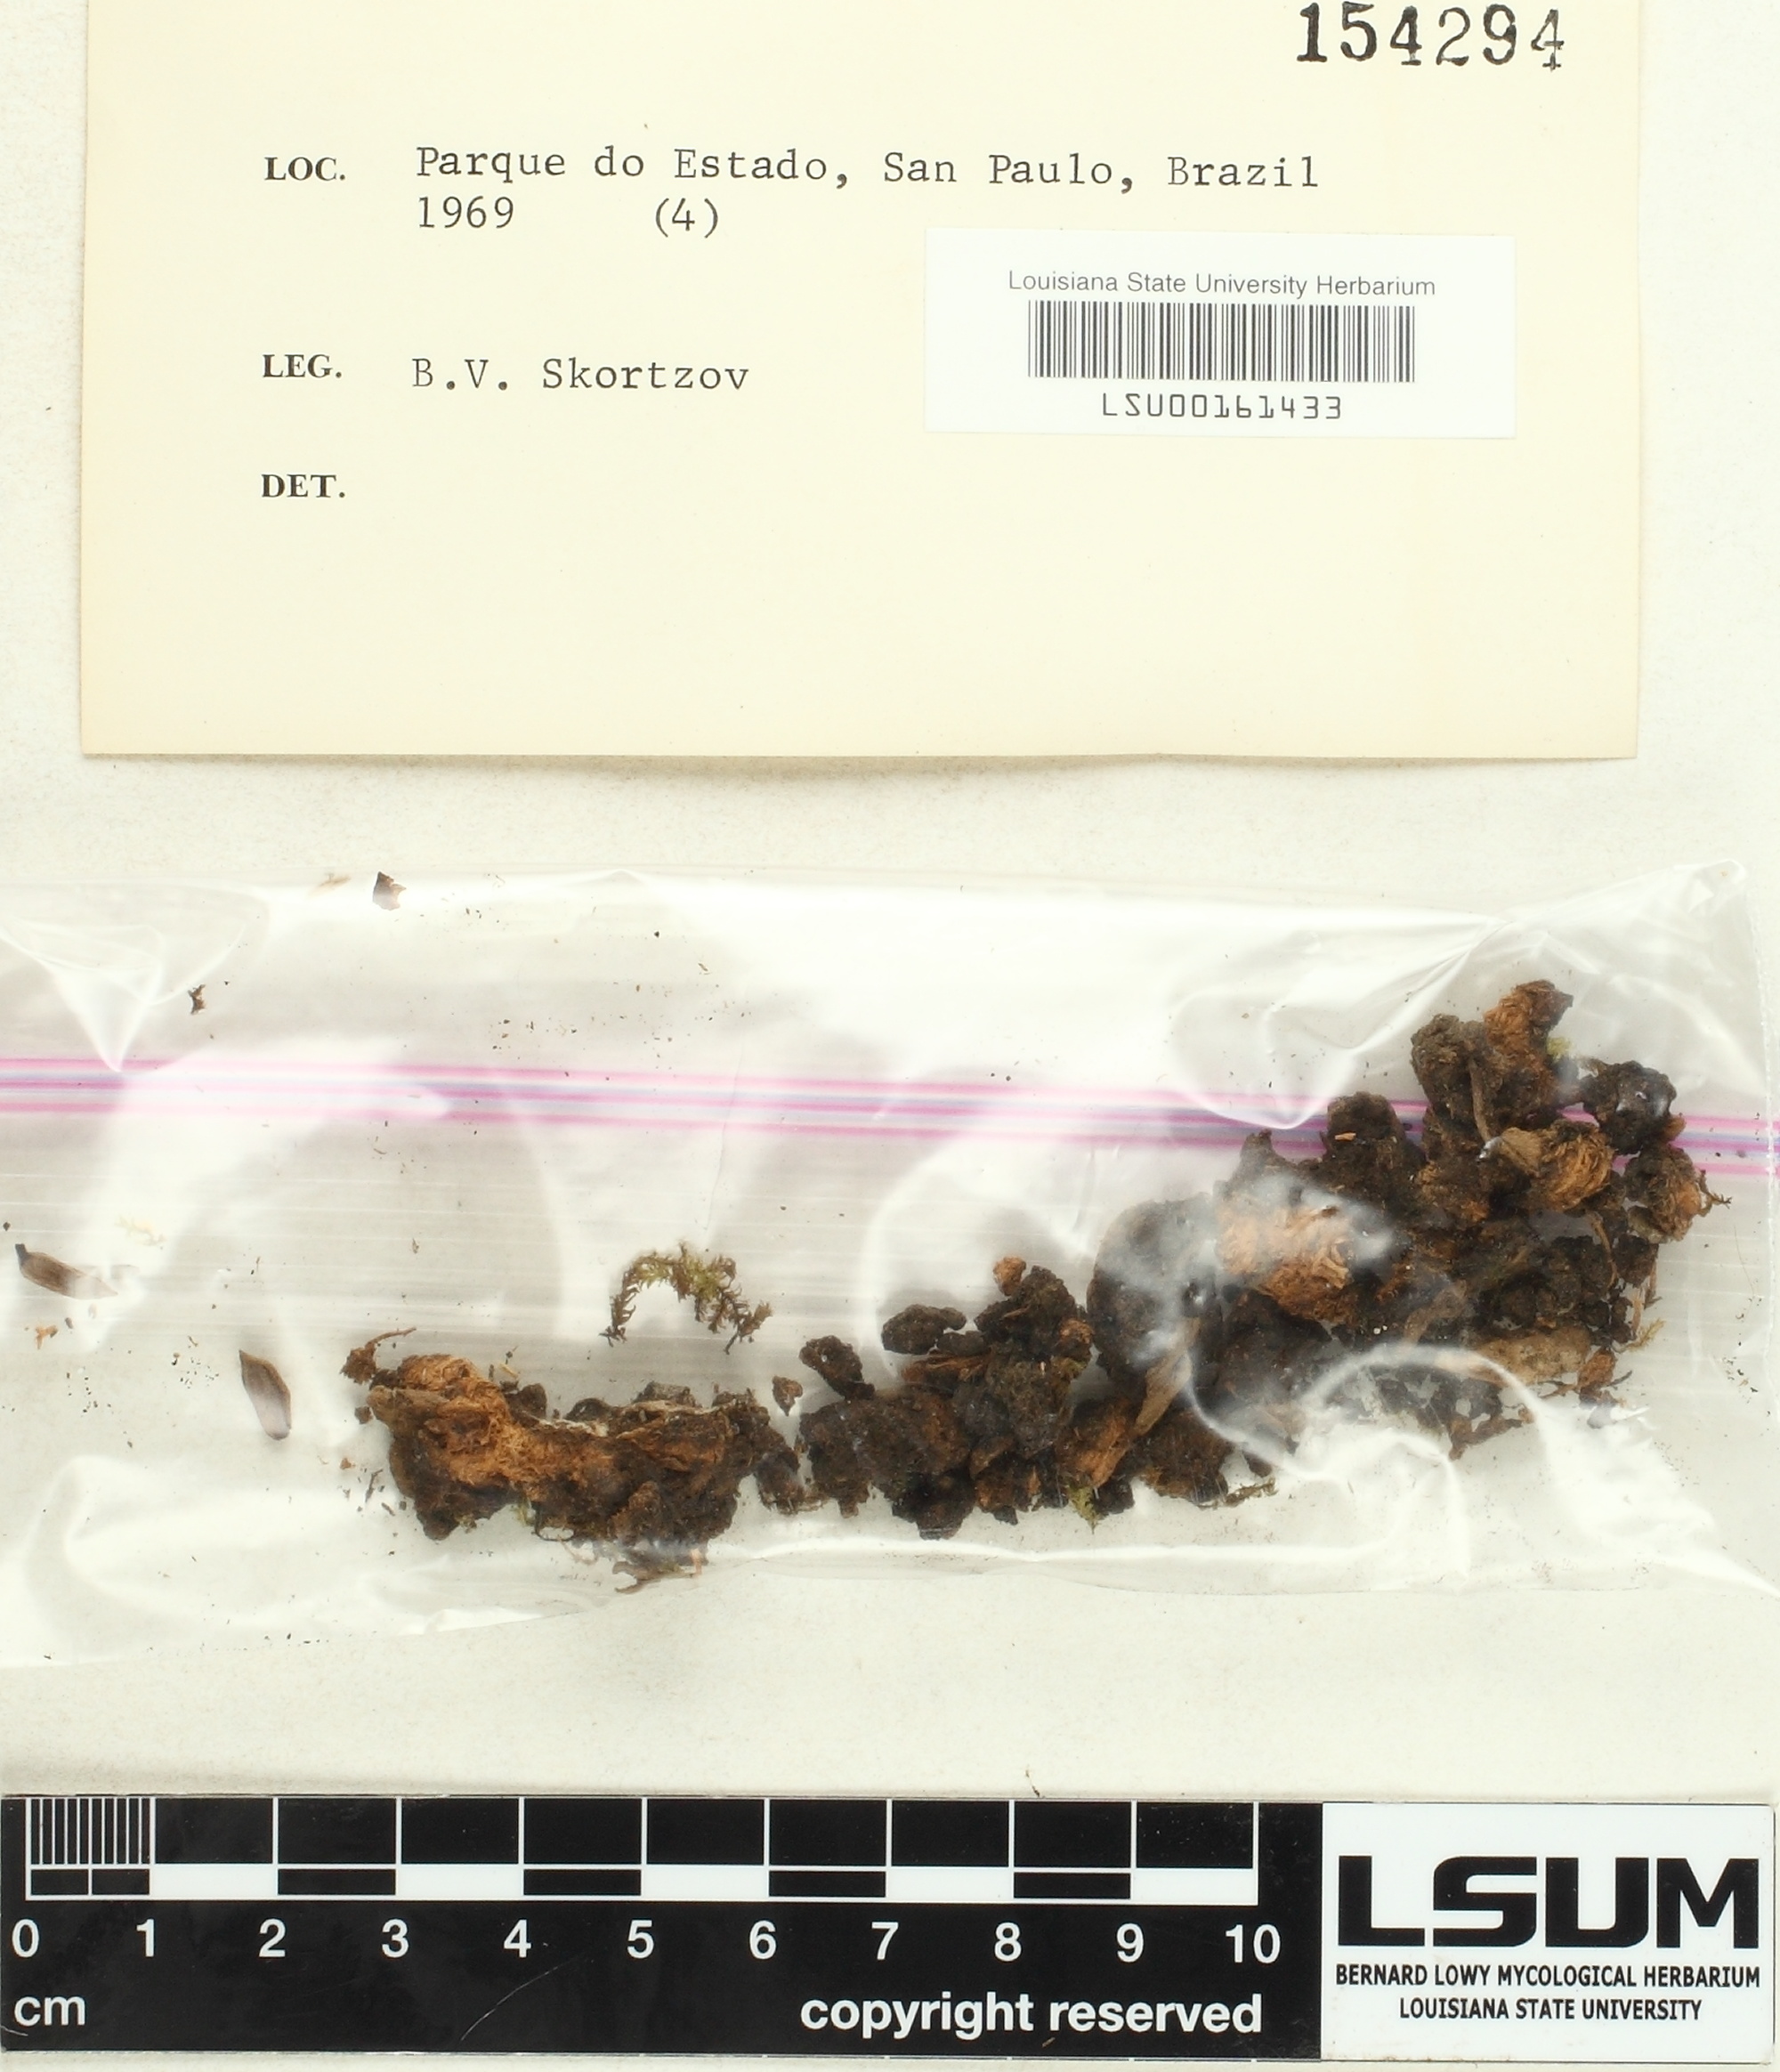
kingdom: Fungi
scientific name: Fungi
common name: Fungi
